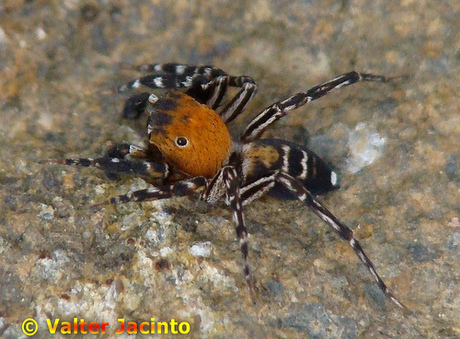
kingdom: Animalia
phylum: Arthropoda
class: Arachnida
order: Araneae
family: Salticidae
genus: Cyrba
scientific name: Cyrba algerina
